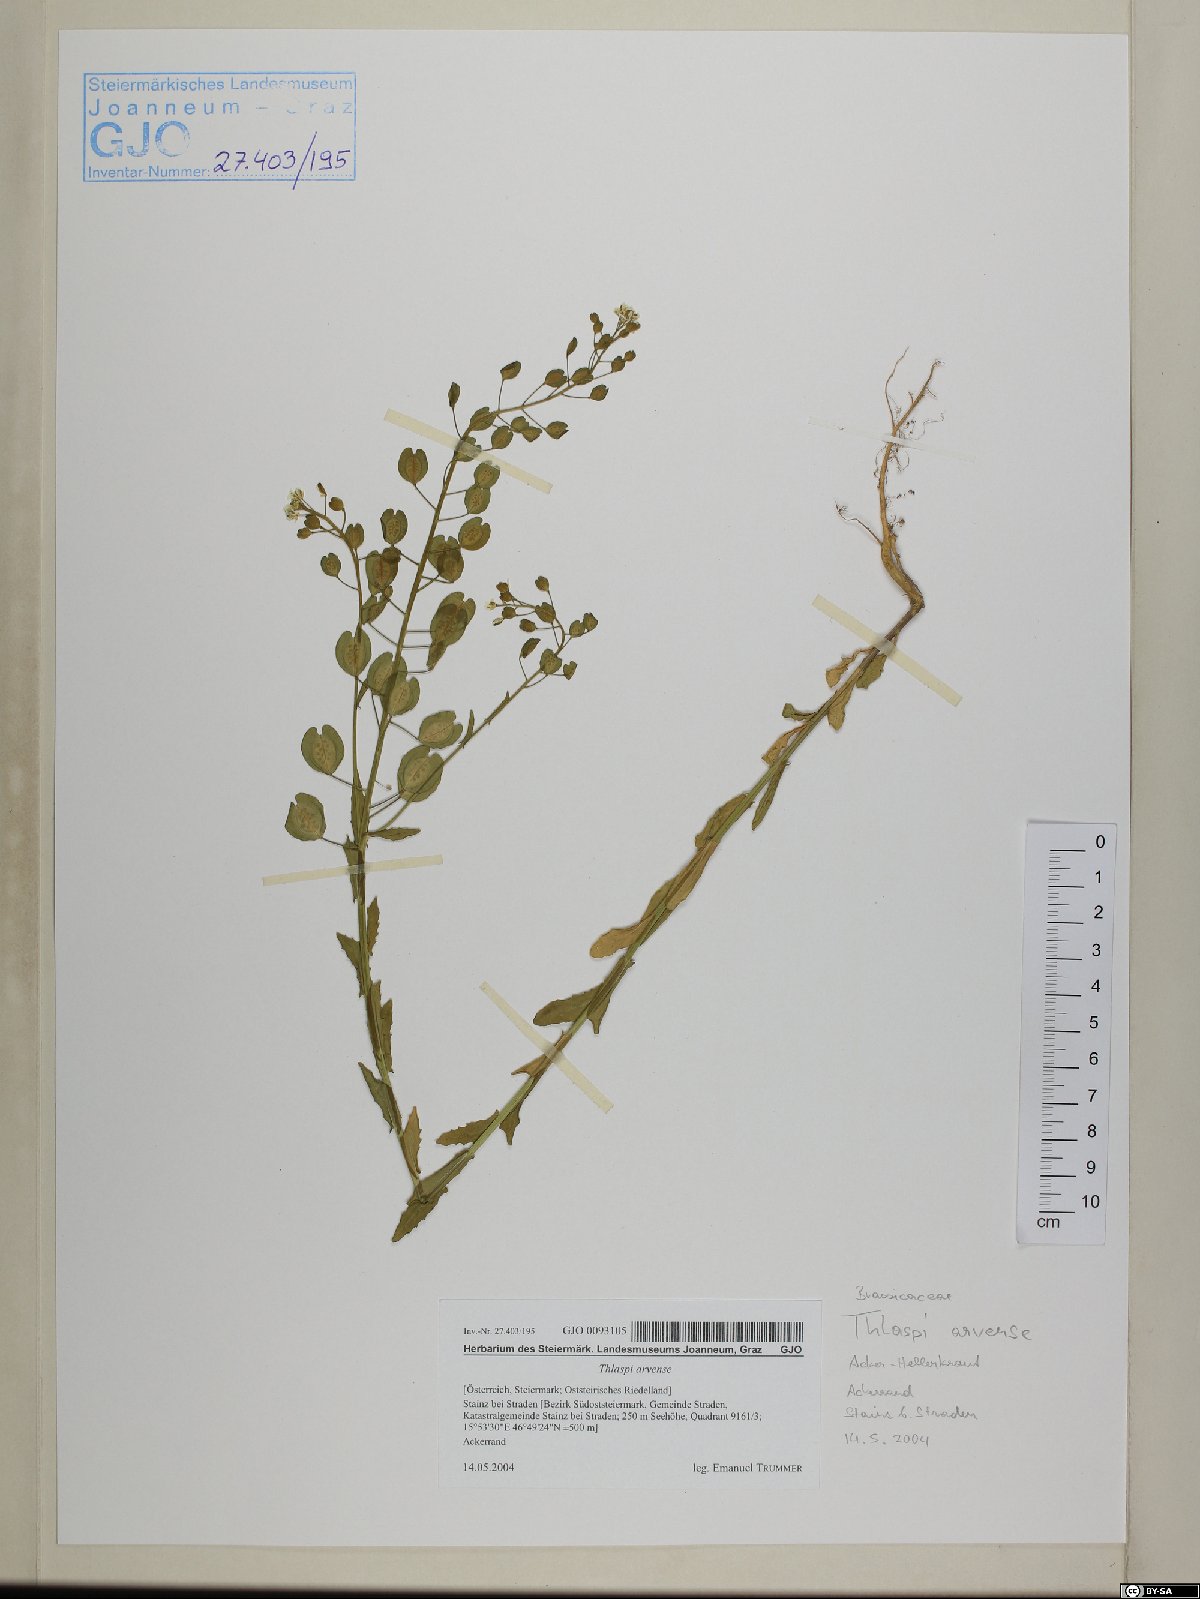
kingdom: Plantae
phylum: Tracheophyta
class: Magnoliopsida
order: Brassicales
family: Brassicaceae
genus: Thlaspi
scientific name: Thlaspi arvense
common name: Field pennycress
